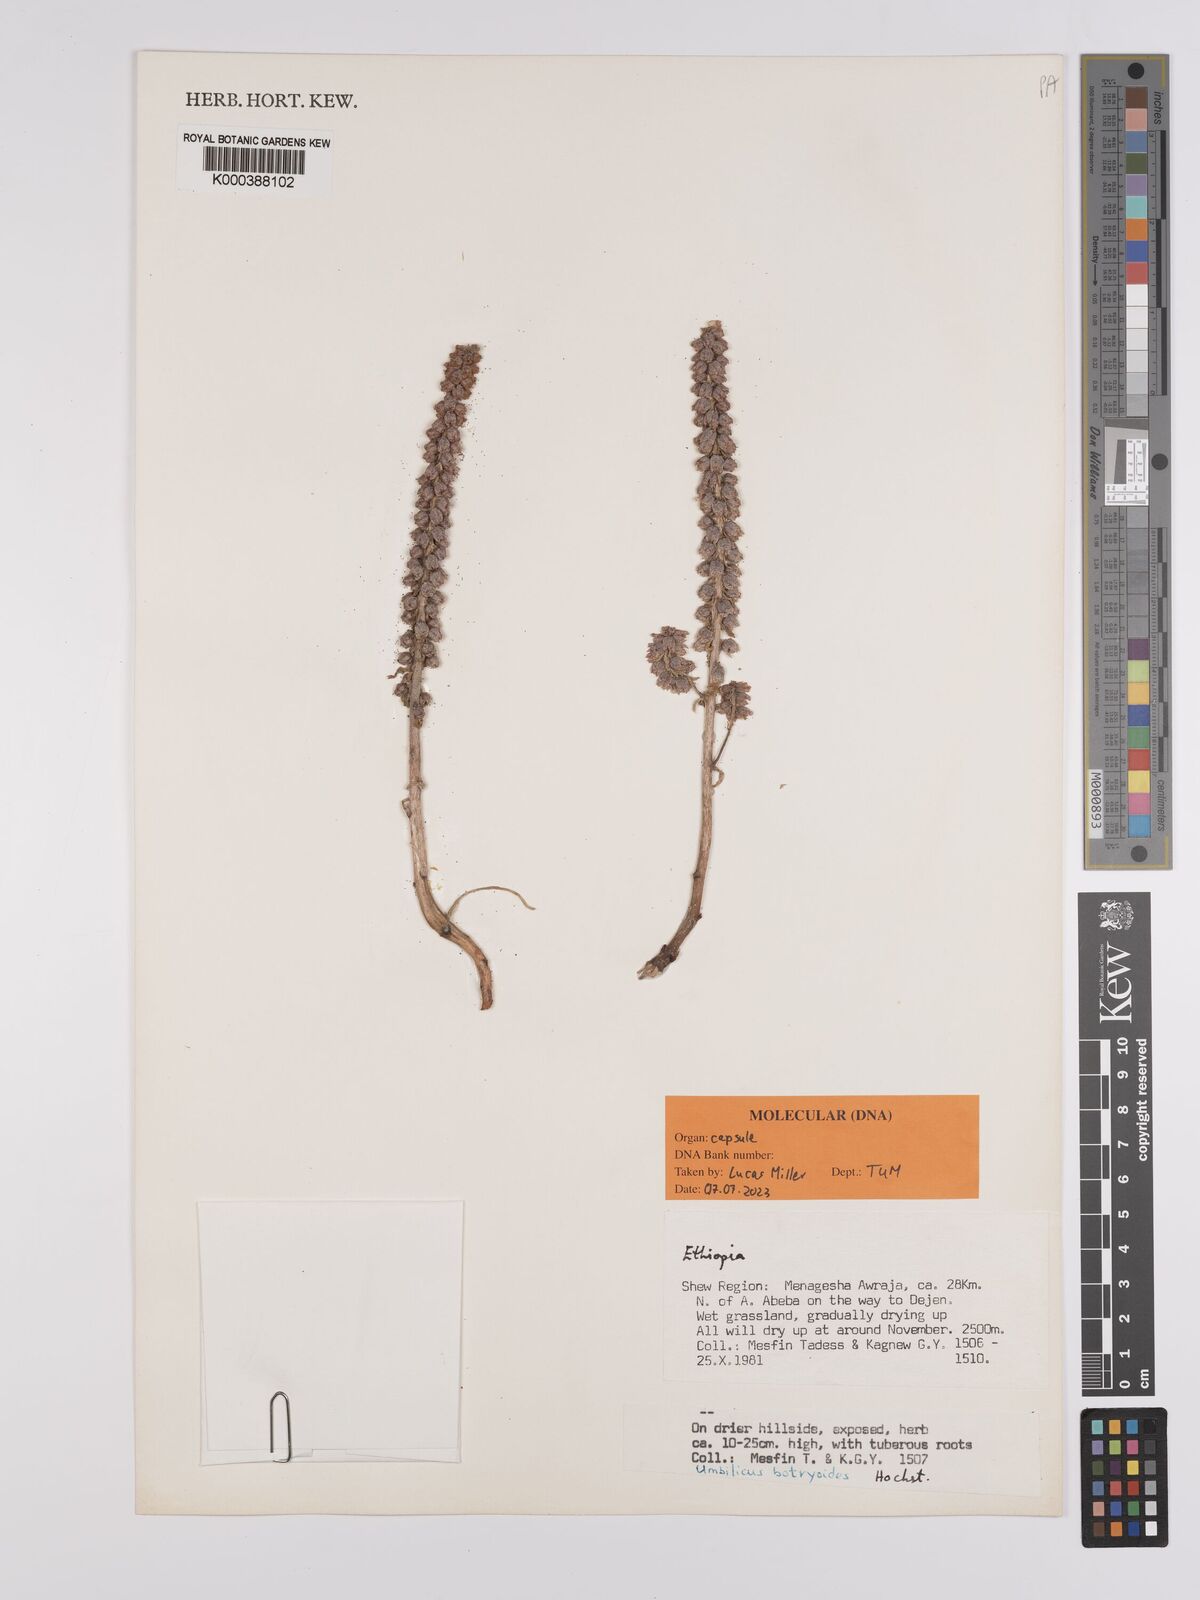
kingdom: Plantae
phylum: Tracheophyta
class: Magnoliopsida
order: Saxifragales
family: Crassulaceae
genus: Umbilicus
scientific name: Umbilicus botryoides
